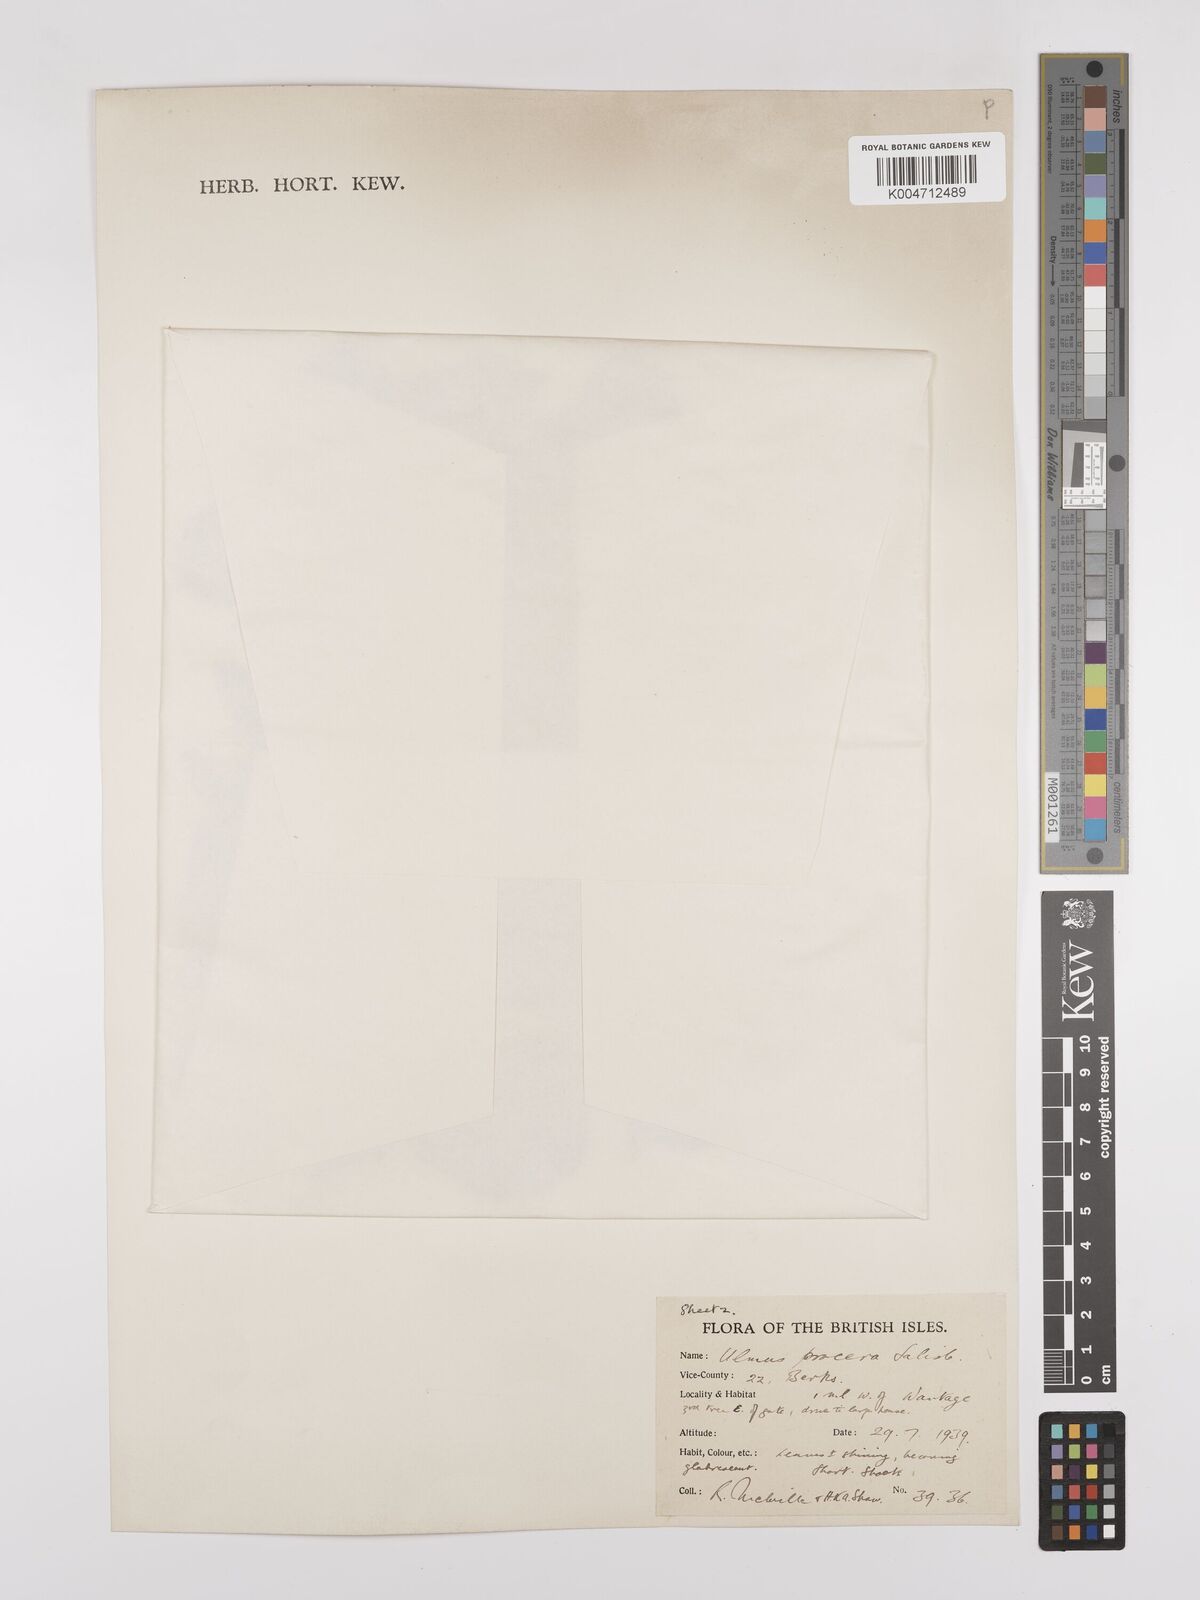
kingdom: Plantae
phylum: Tracheophyta
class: Magnoliopsida
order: Rosales
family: Ulmaceae
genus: Ulmus
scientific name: Ulmus minor
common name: Small-leaved elm
